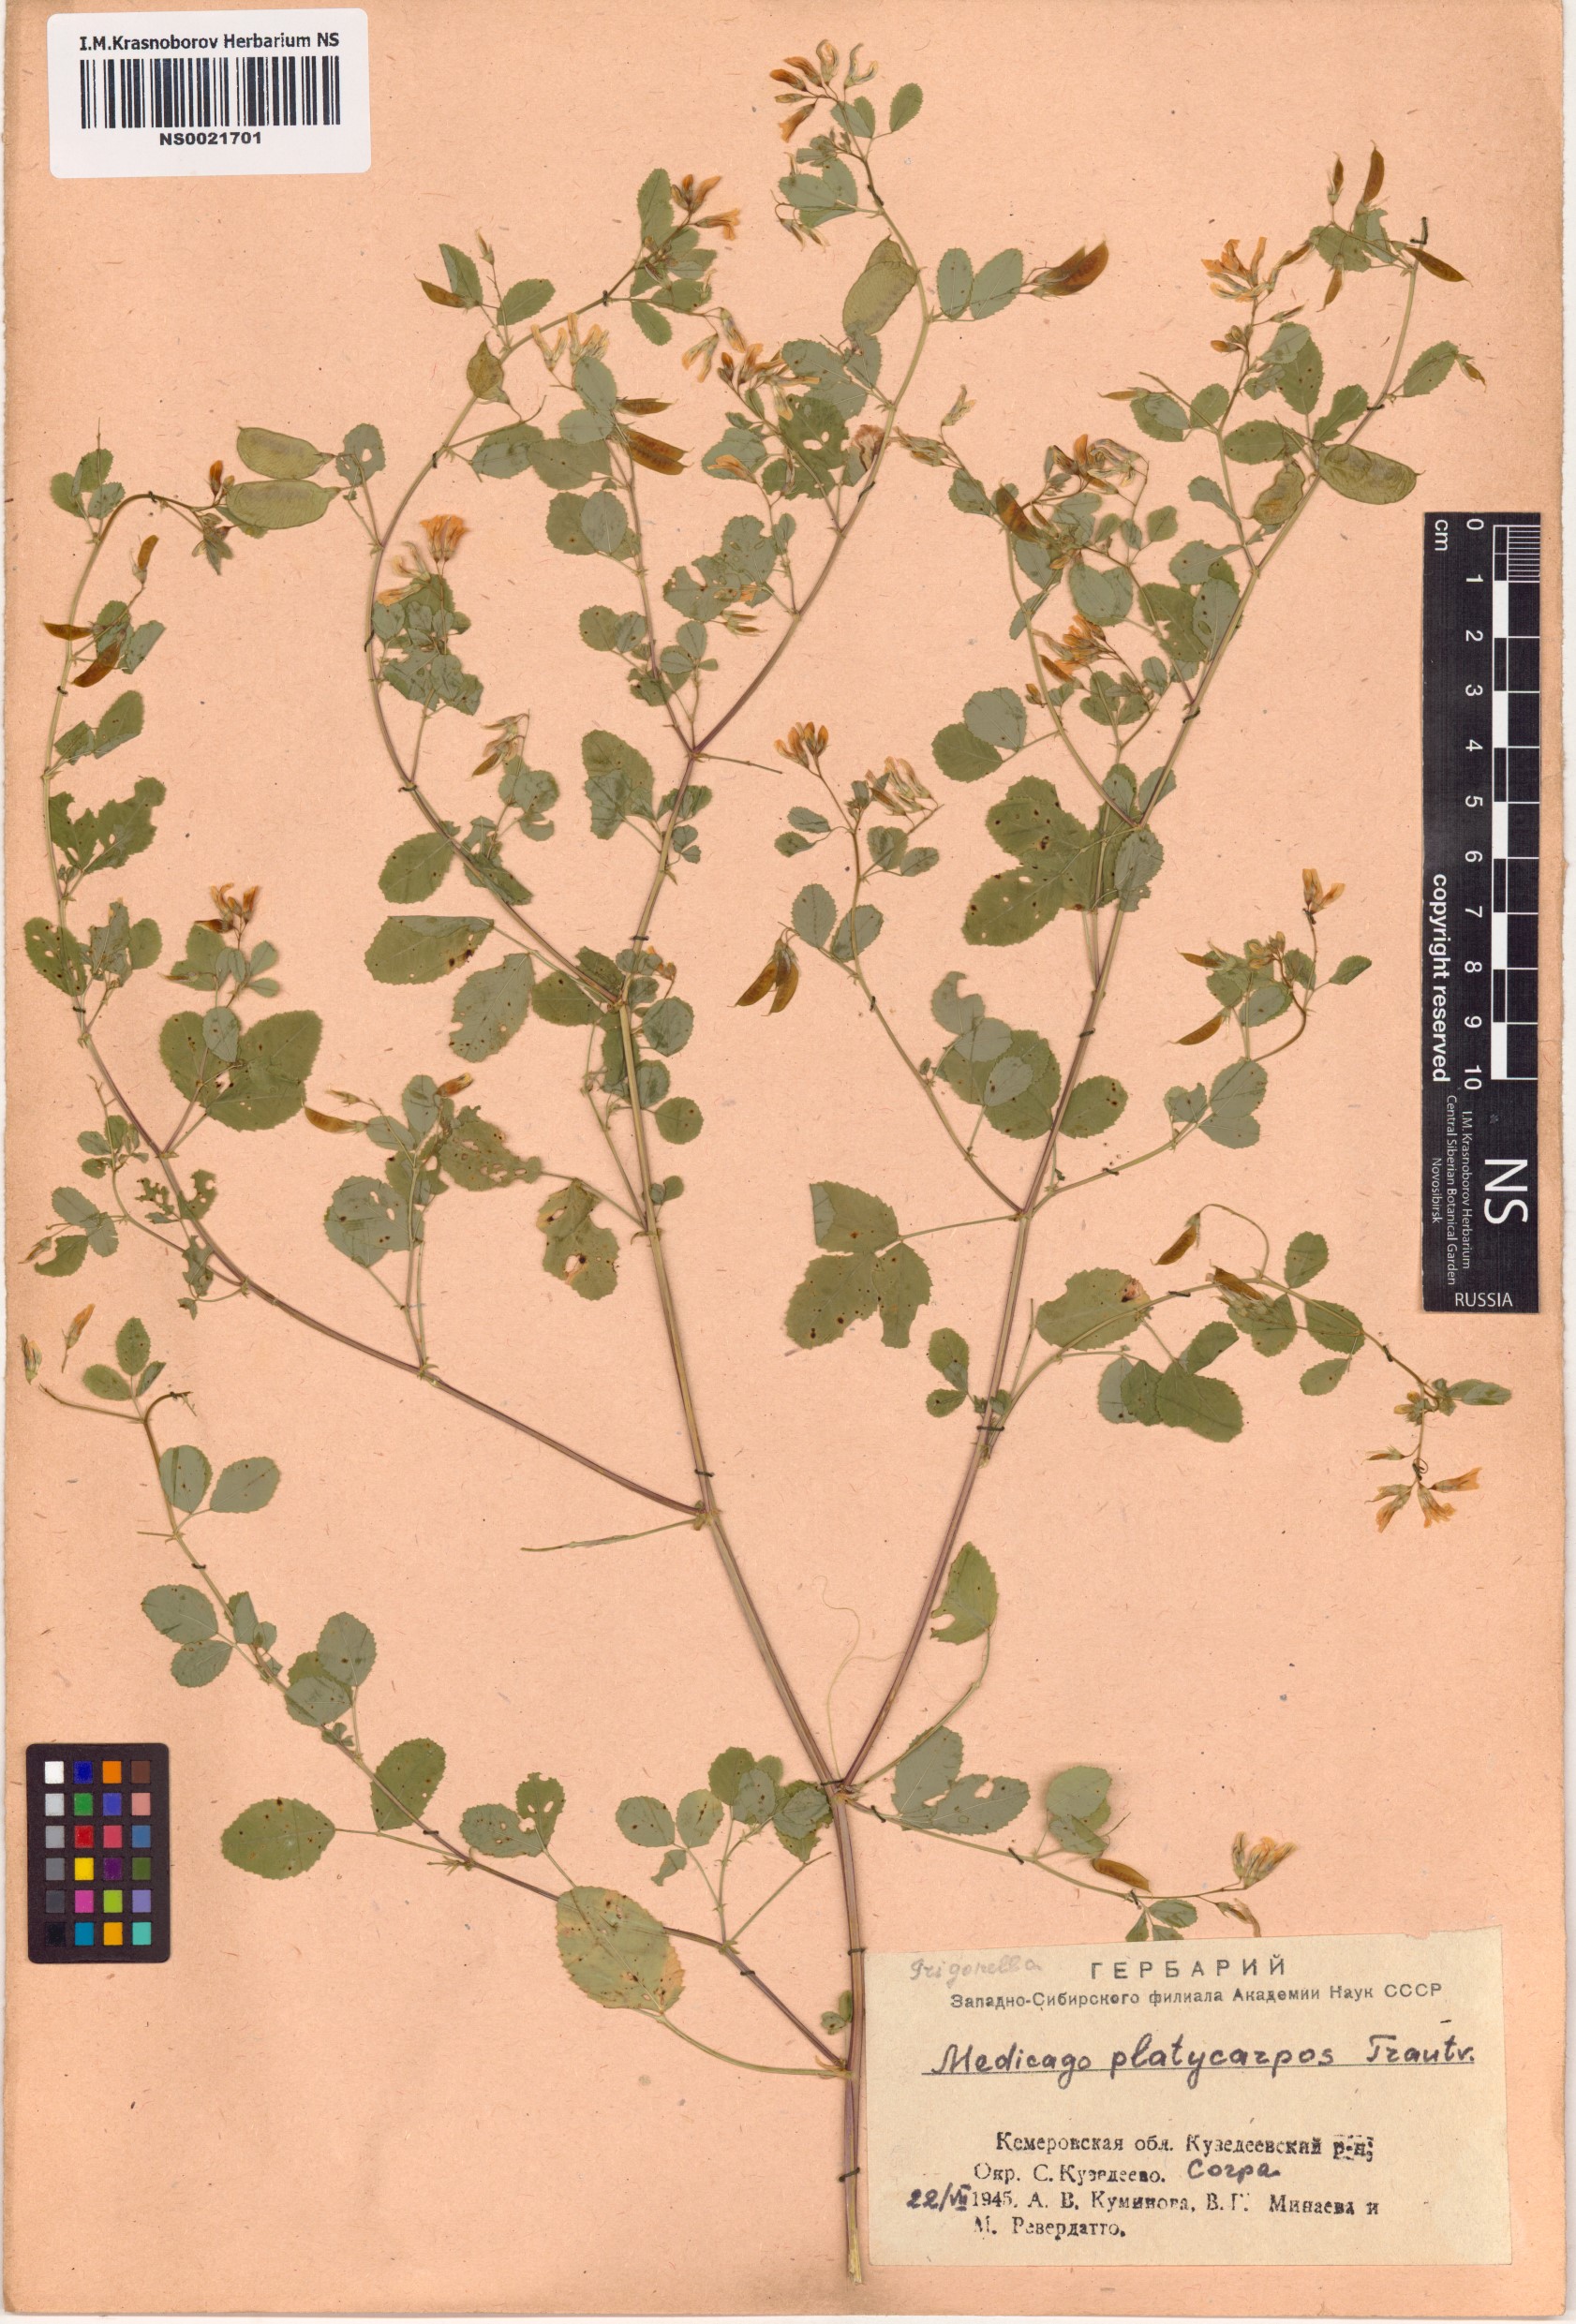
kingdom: Plantae
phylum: Tracheophyta
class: Magnoliopsida
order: Fabales
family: Fabaceae
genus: Medicago
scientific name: Medicago platycarpos
